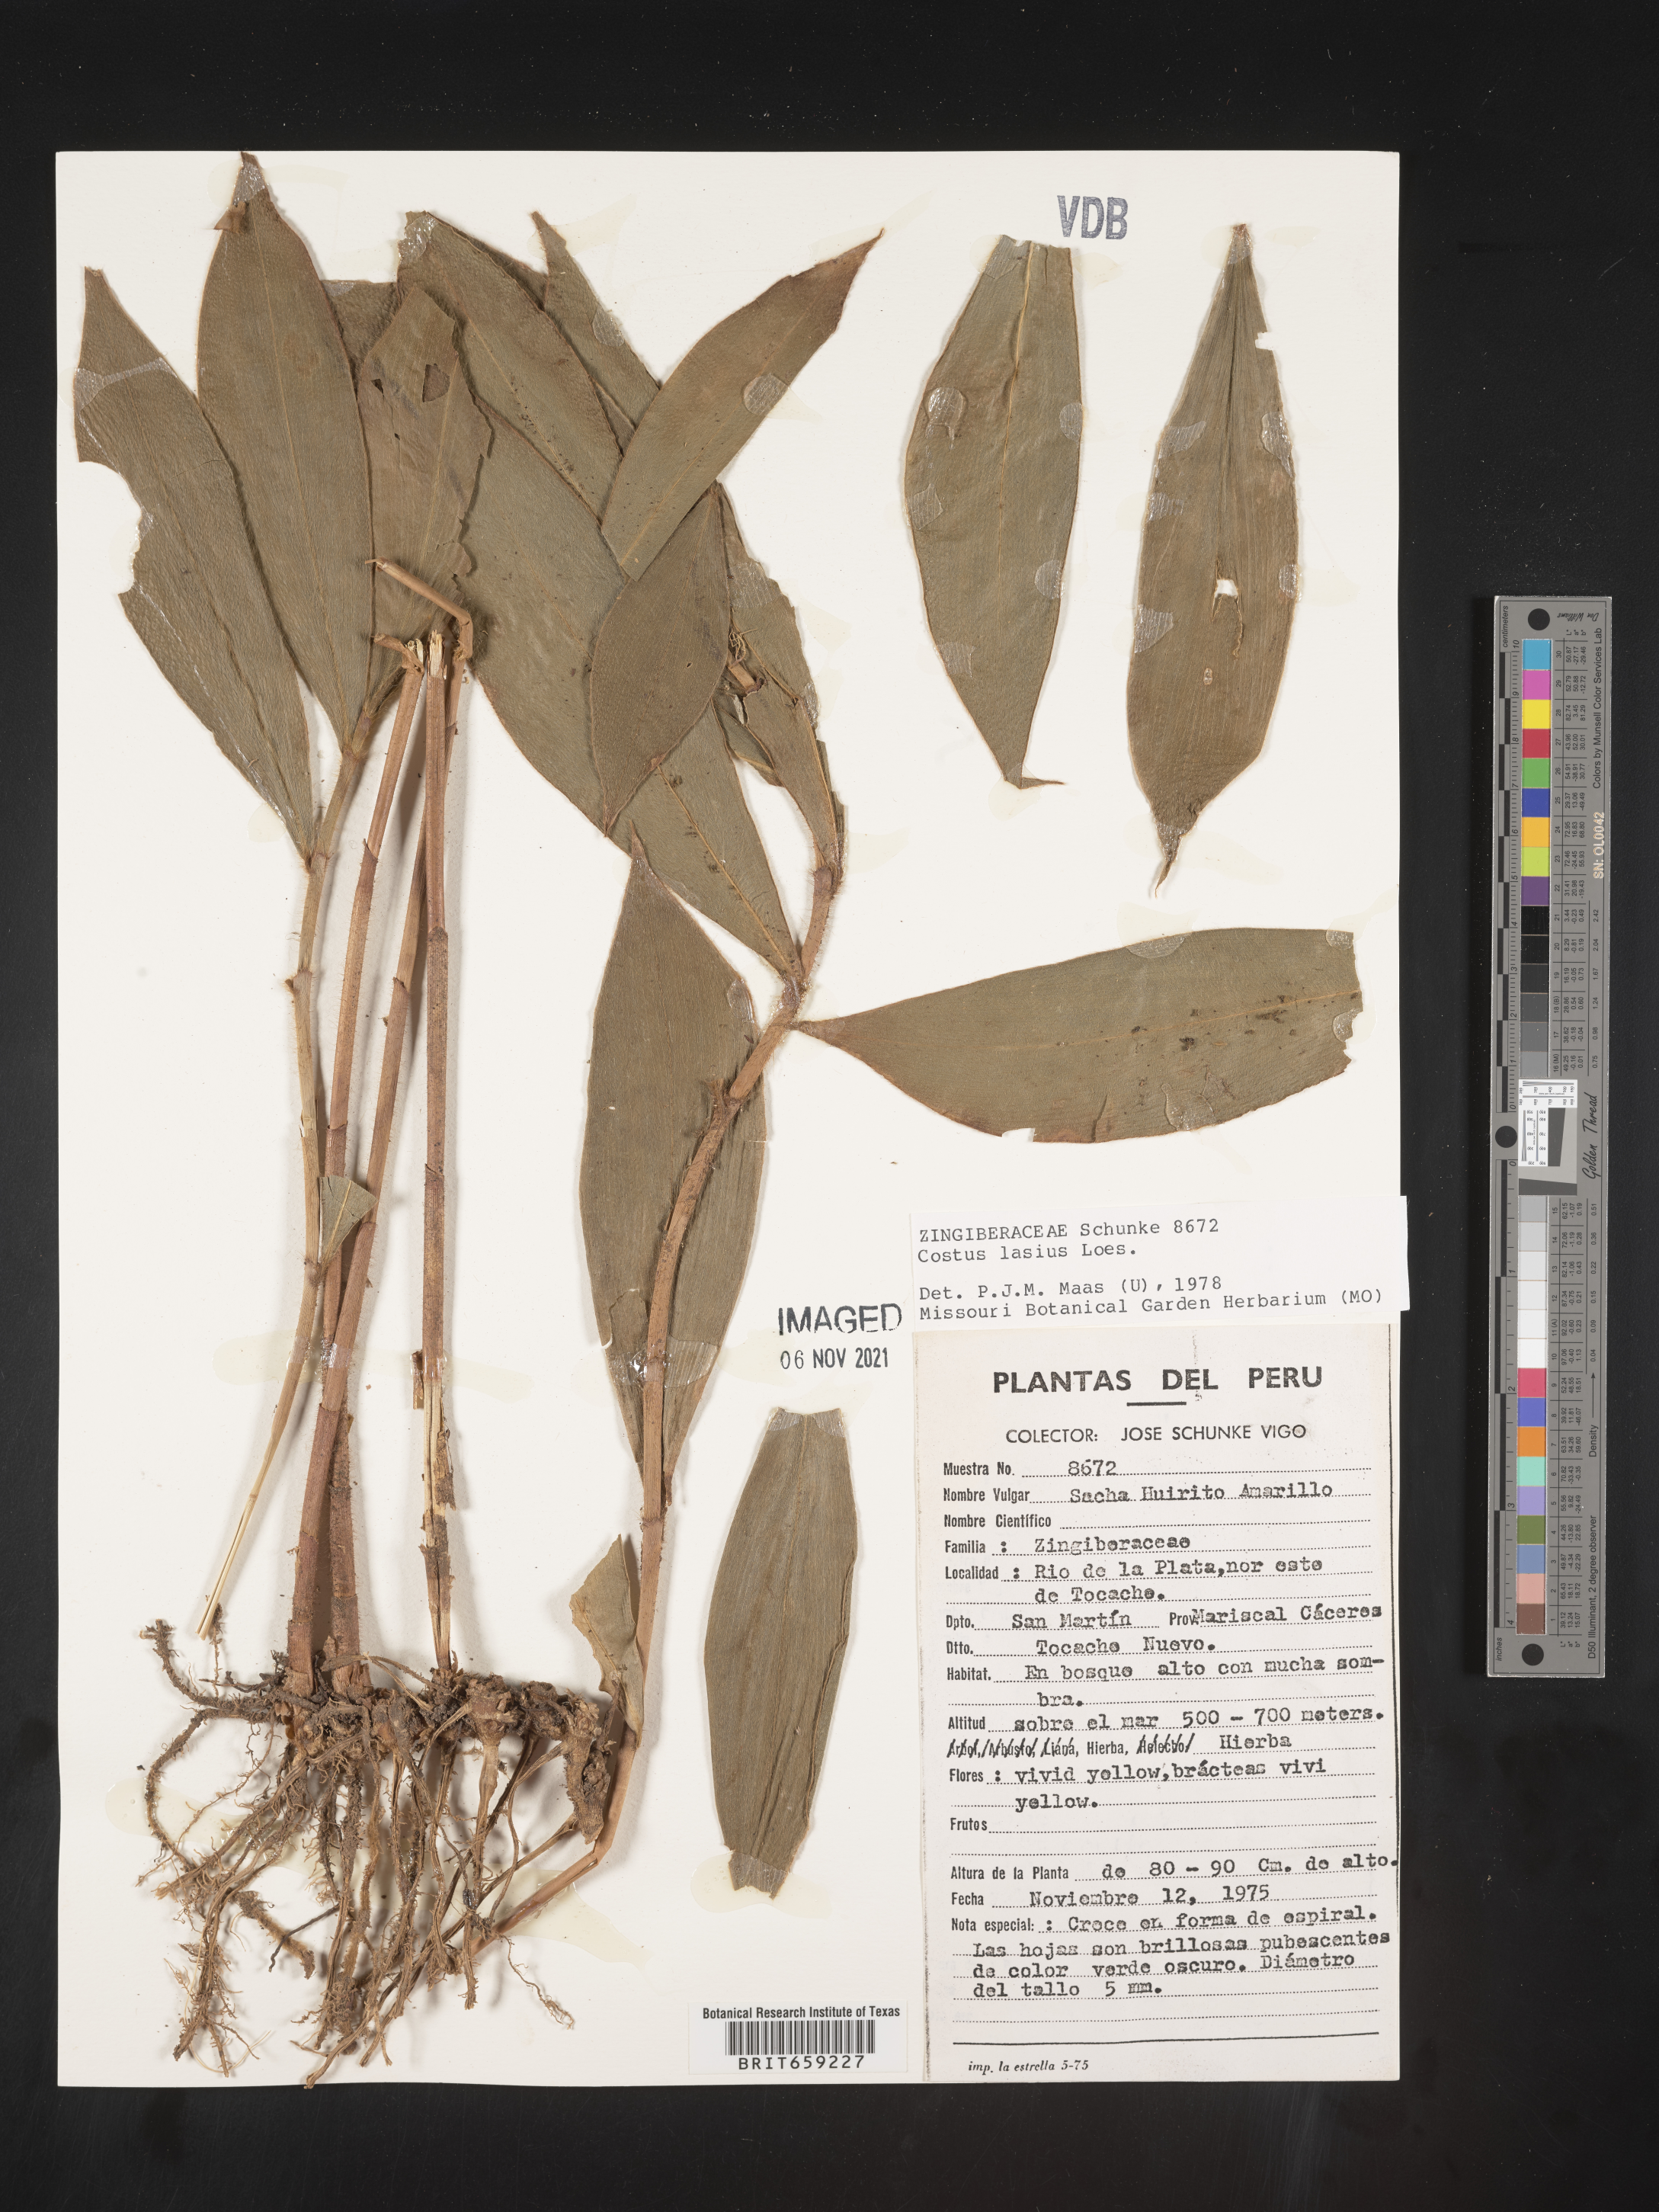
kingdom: Plantae
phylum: Tracheophyta
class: Liliopsida
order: Zingiberales
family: Costaceae
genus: Costus
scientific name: Costus lasius
